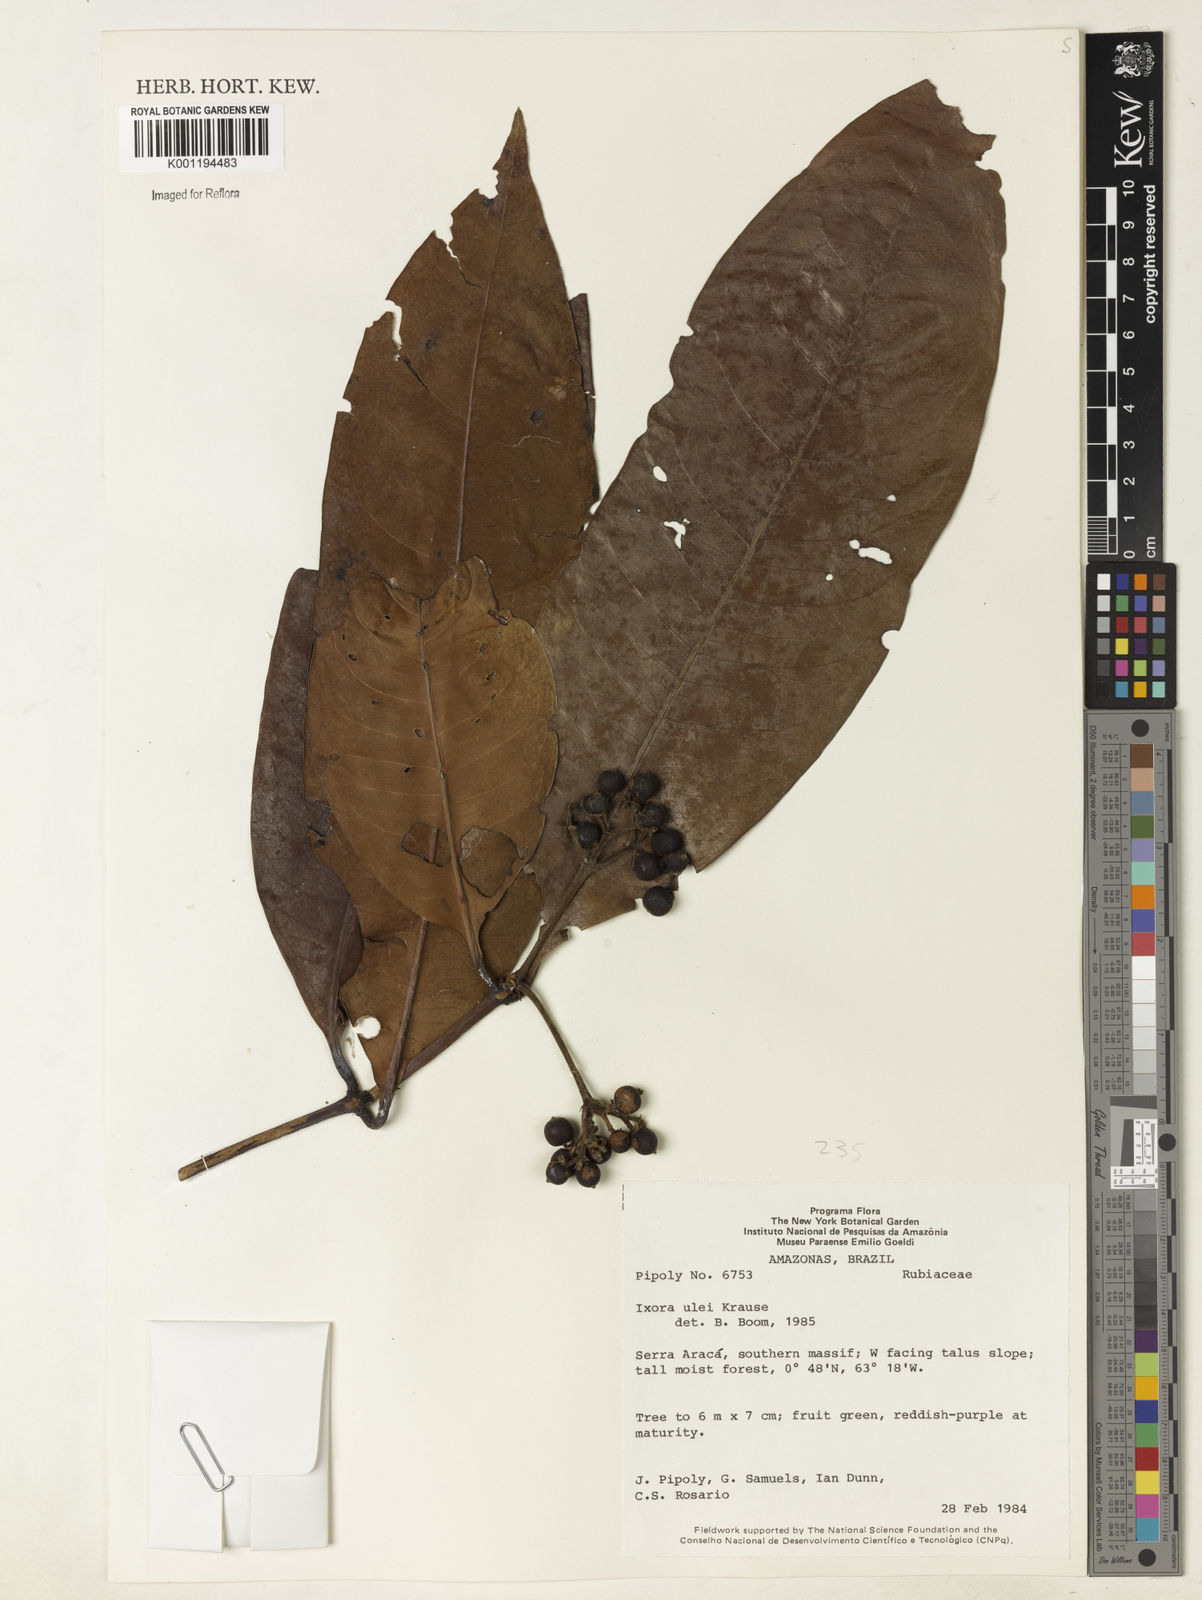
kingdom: Plantae
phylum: Tracheophyta
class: Magnoliopsida
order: Gentianales
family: Rubiaceae
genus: Ixora
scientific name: Ixora sparsifolia
